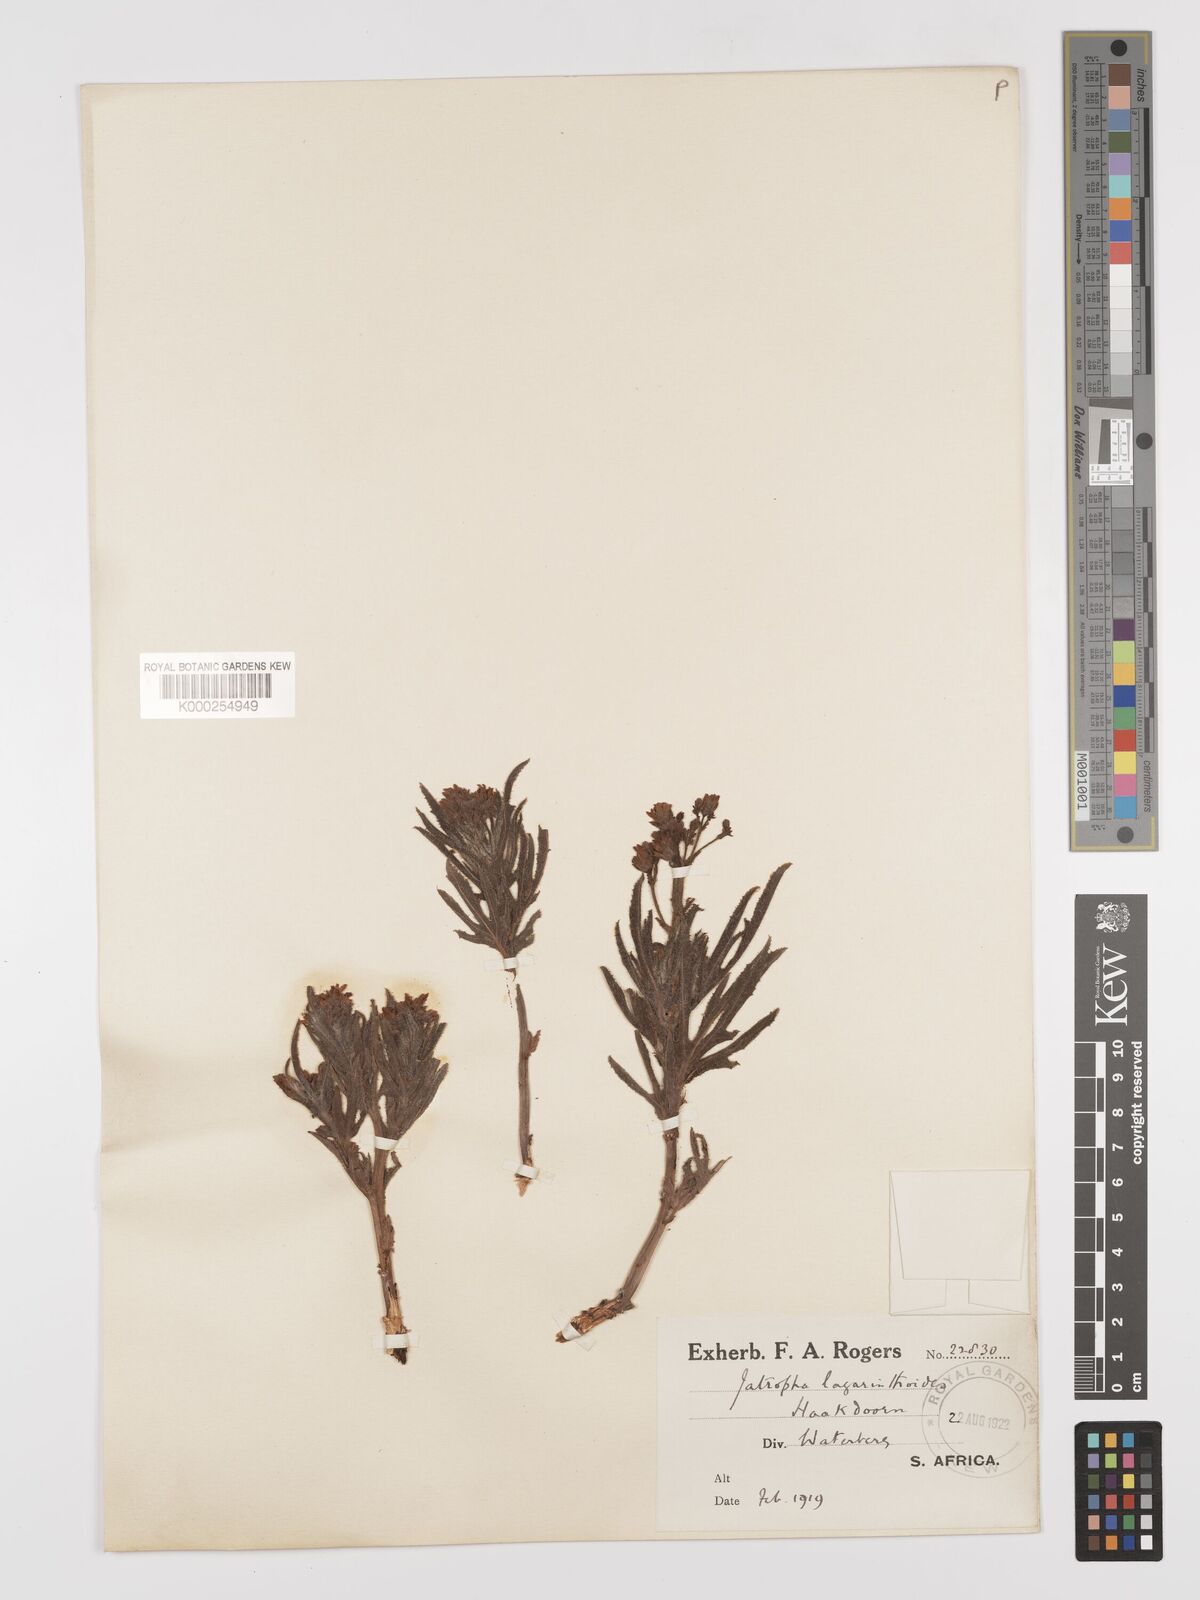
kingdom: Plantae
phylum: Tracheophyta
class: Magnoliopsida
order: Malpighiales
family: Euphorbiaceae
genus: Jatropha
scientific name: Jatropha lagarinthoides
